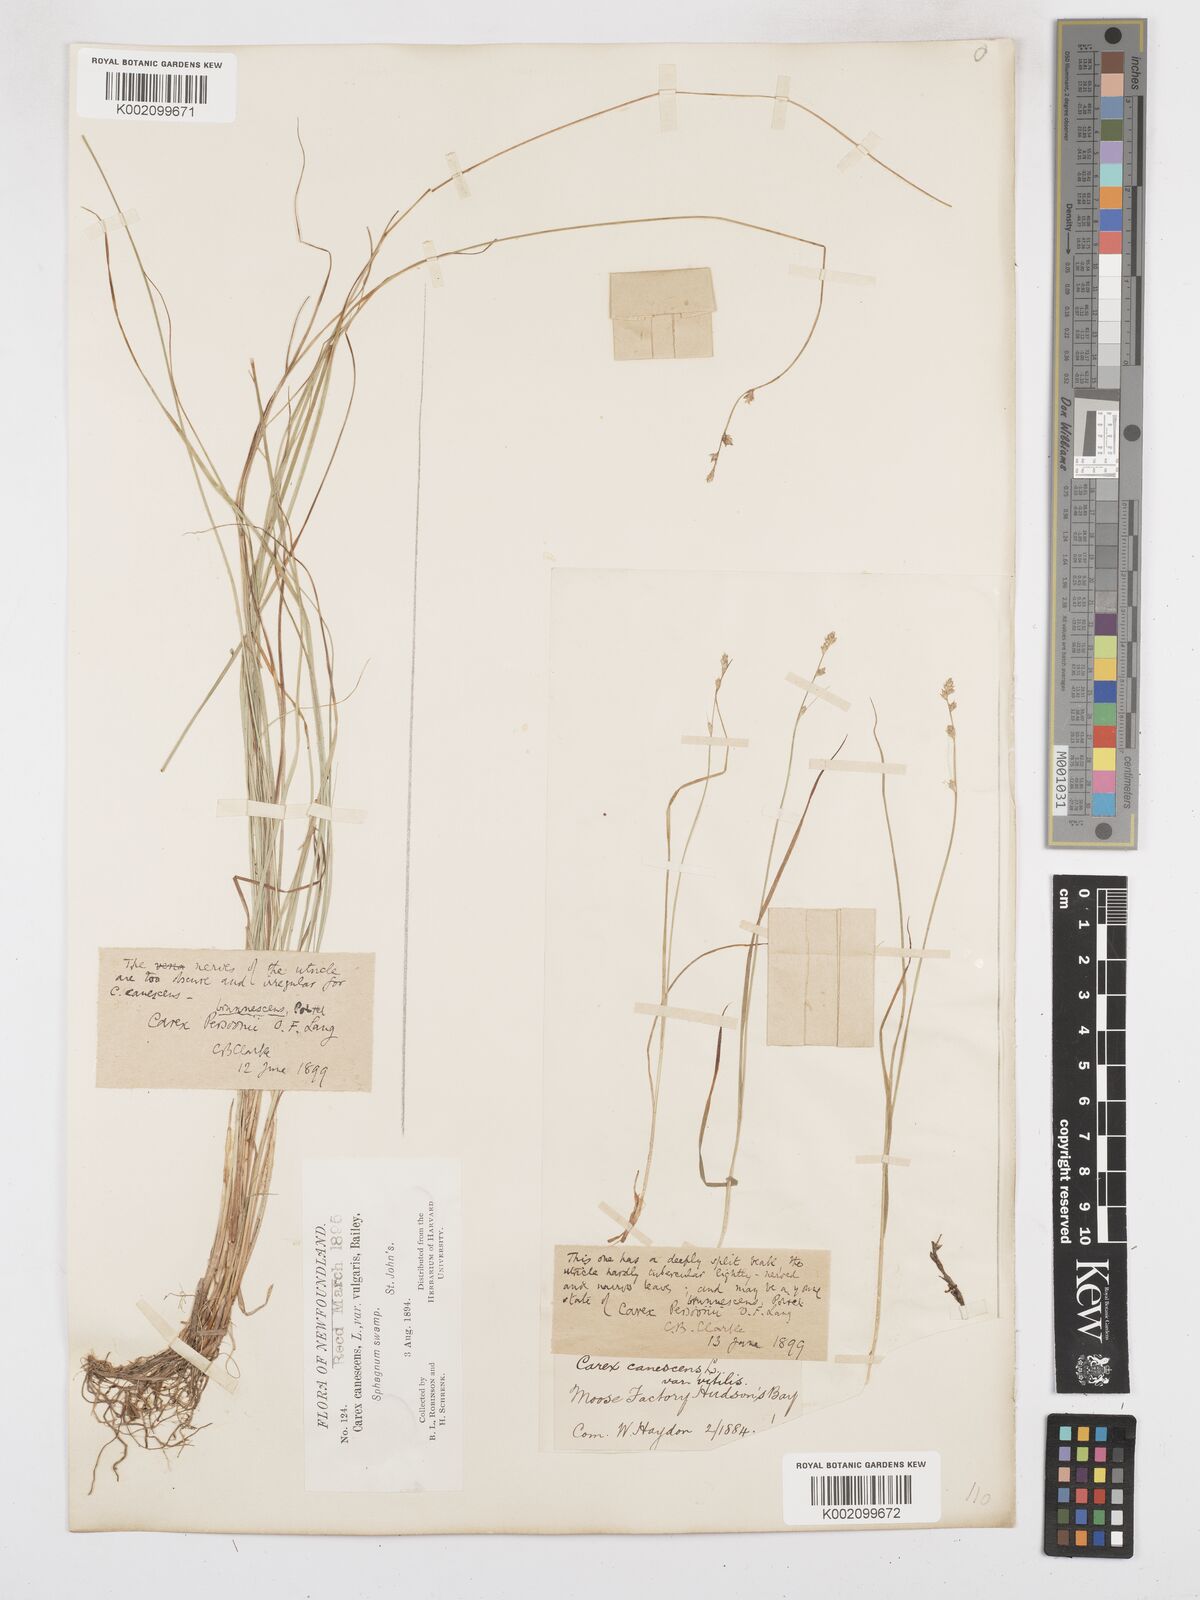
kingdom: Plantae
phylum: Tracheophyta
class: Liliopsida
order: Poales
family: Cyperaceae
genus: Carex
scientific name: Carex brunnescens
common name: Brown sedge
